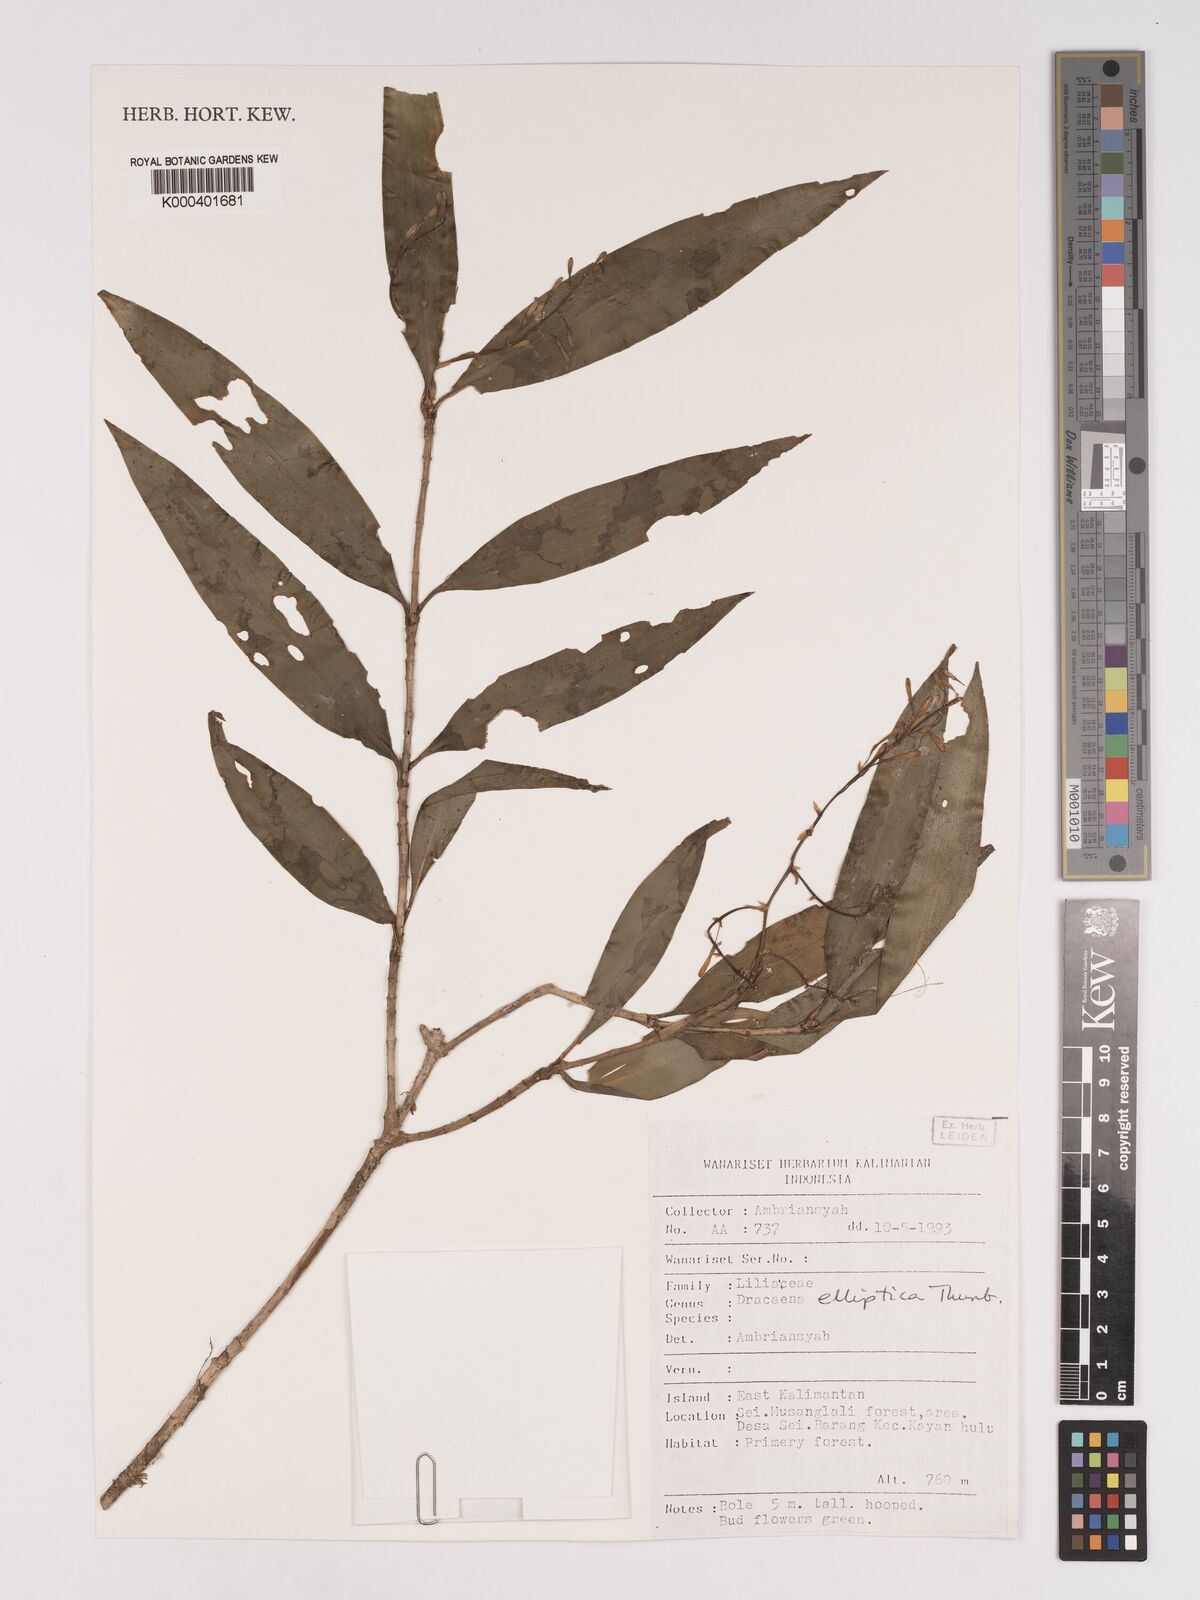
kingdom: Plantae
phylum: Tracheophyta
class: Liliopsida
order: Asparagales
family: Asparagaceae
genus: Dracaena
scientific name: Dracaena elliptica
